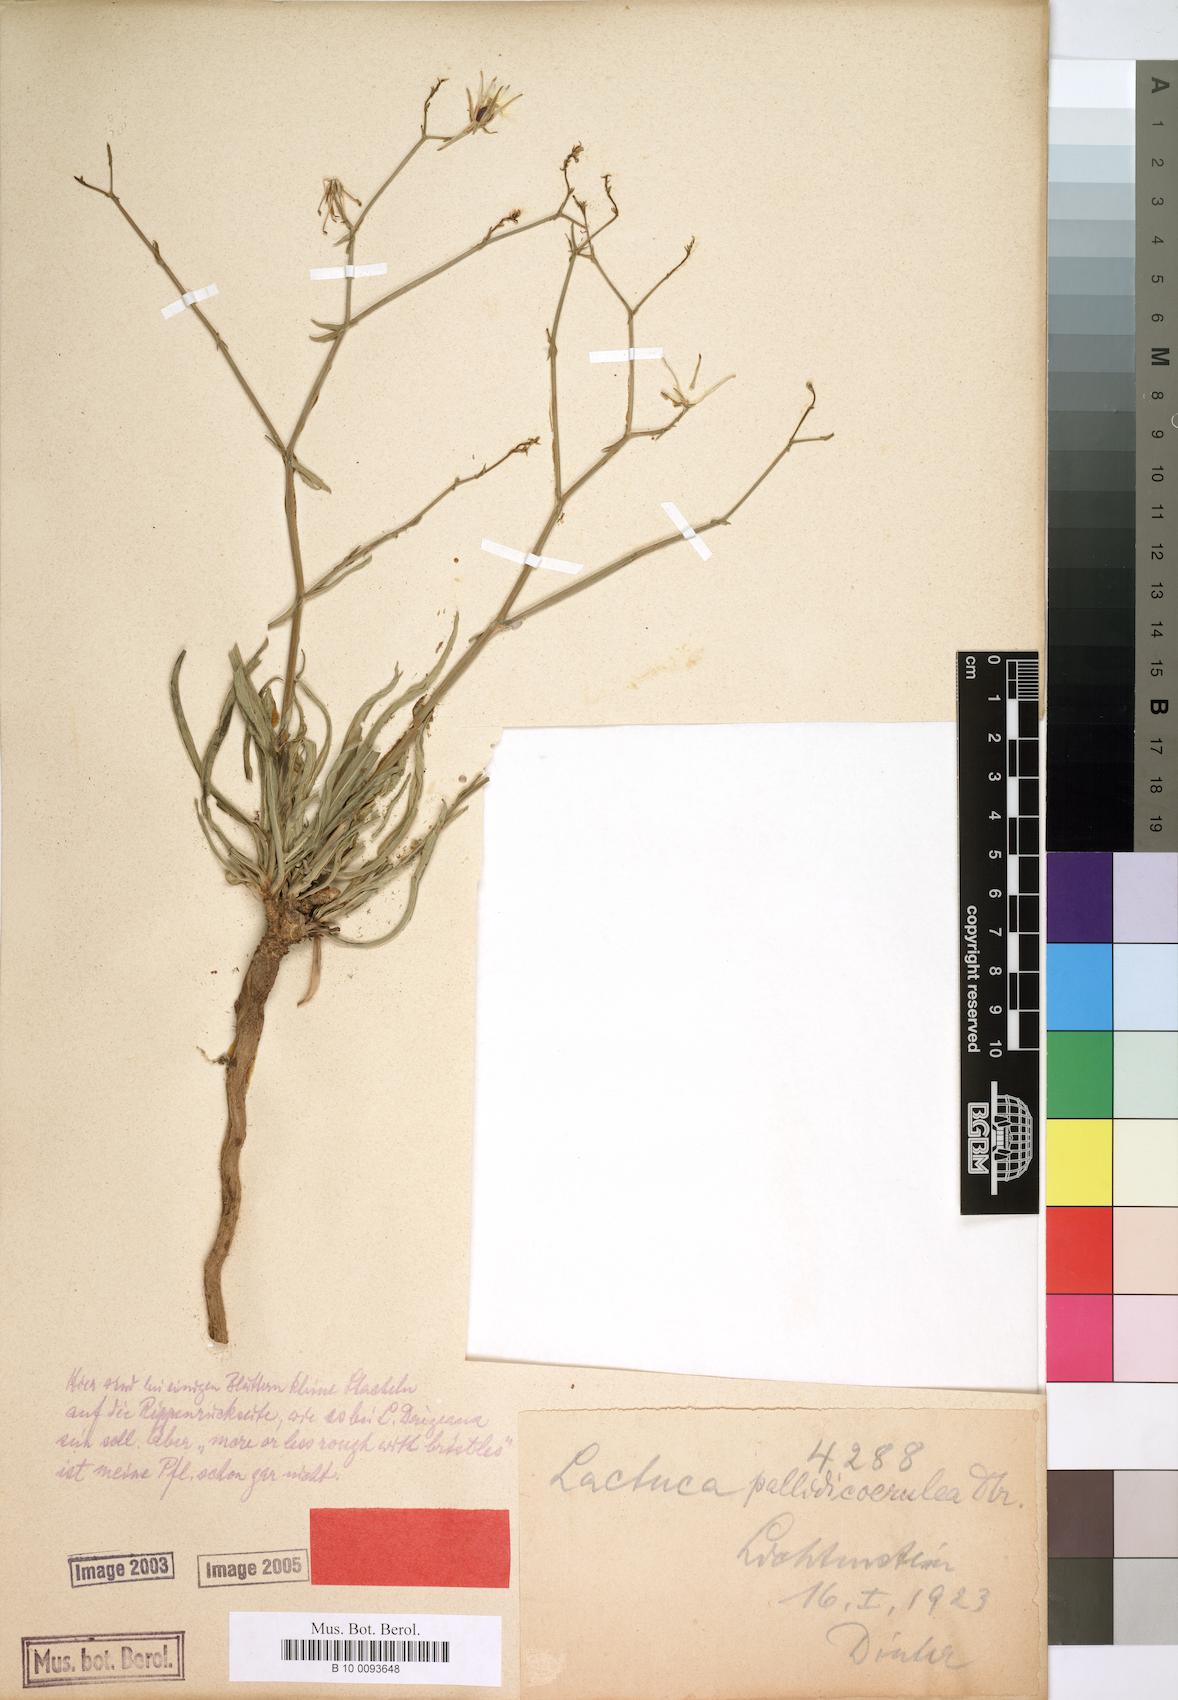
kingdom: Plantae
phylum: Tracheophyta
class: Magnoliopsida
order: Asterales
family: Asteraceae
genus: Lactuca
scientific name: Lactuca inermis
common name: Wild lettuce
